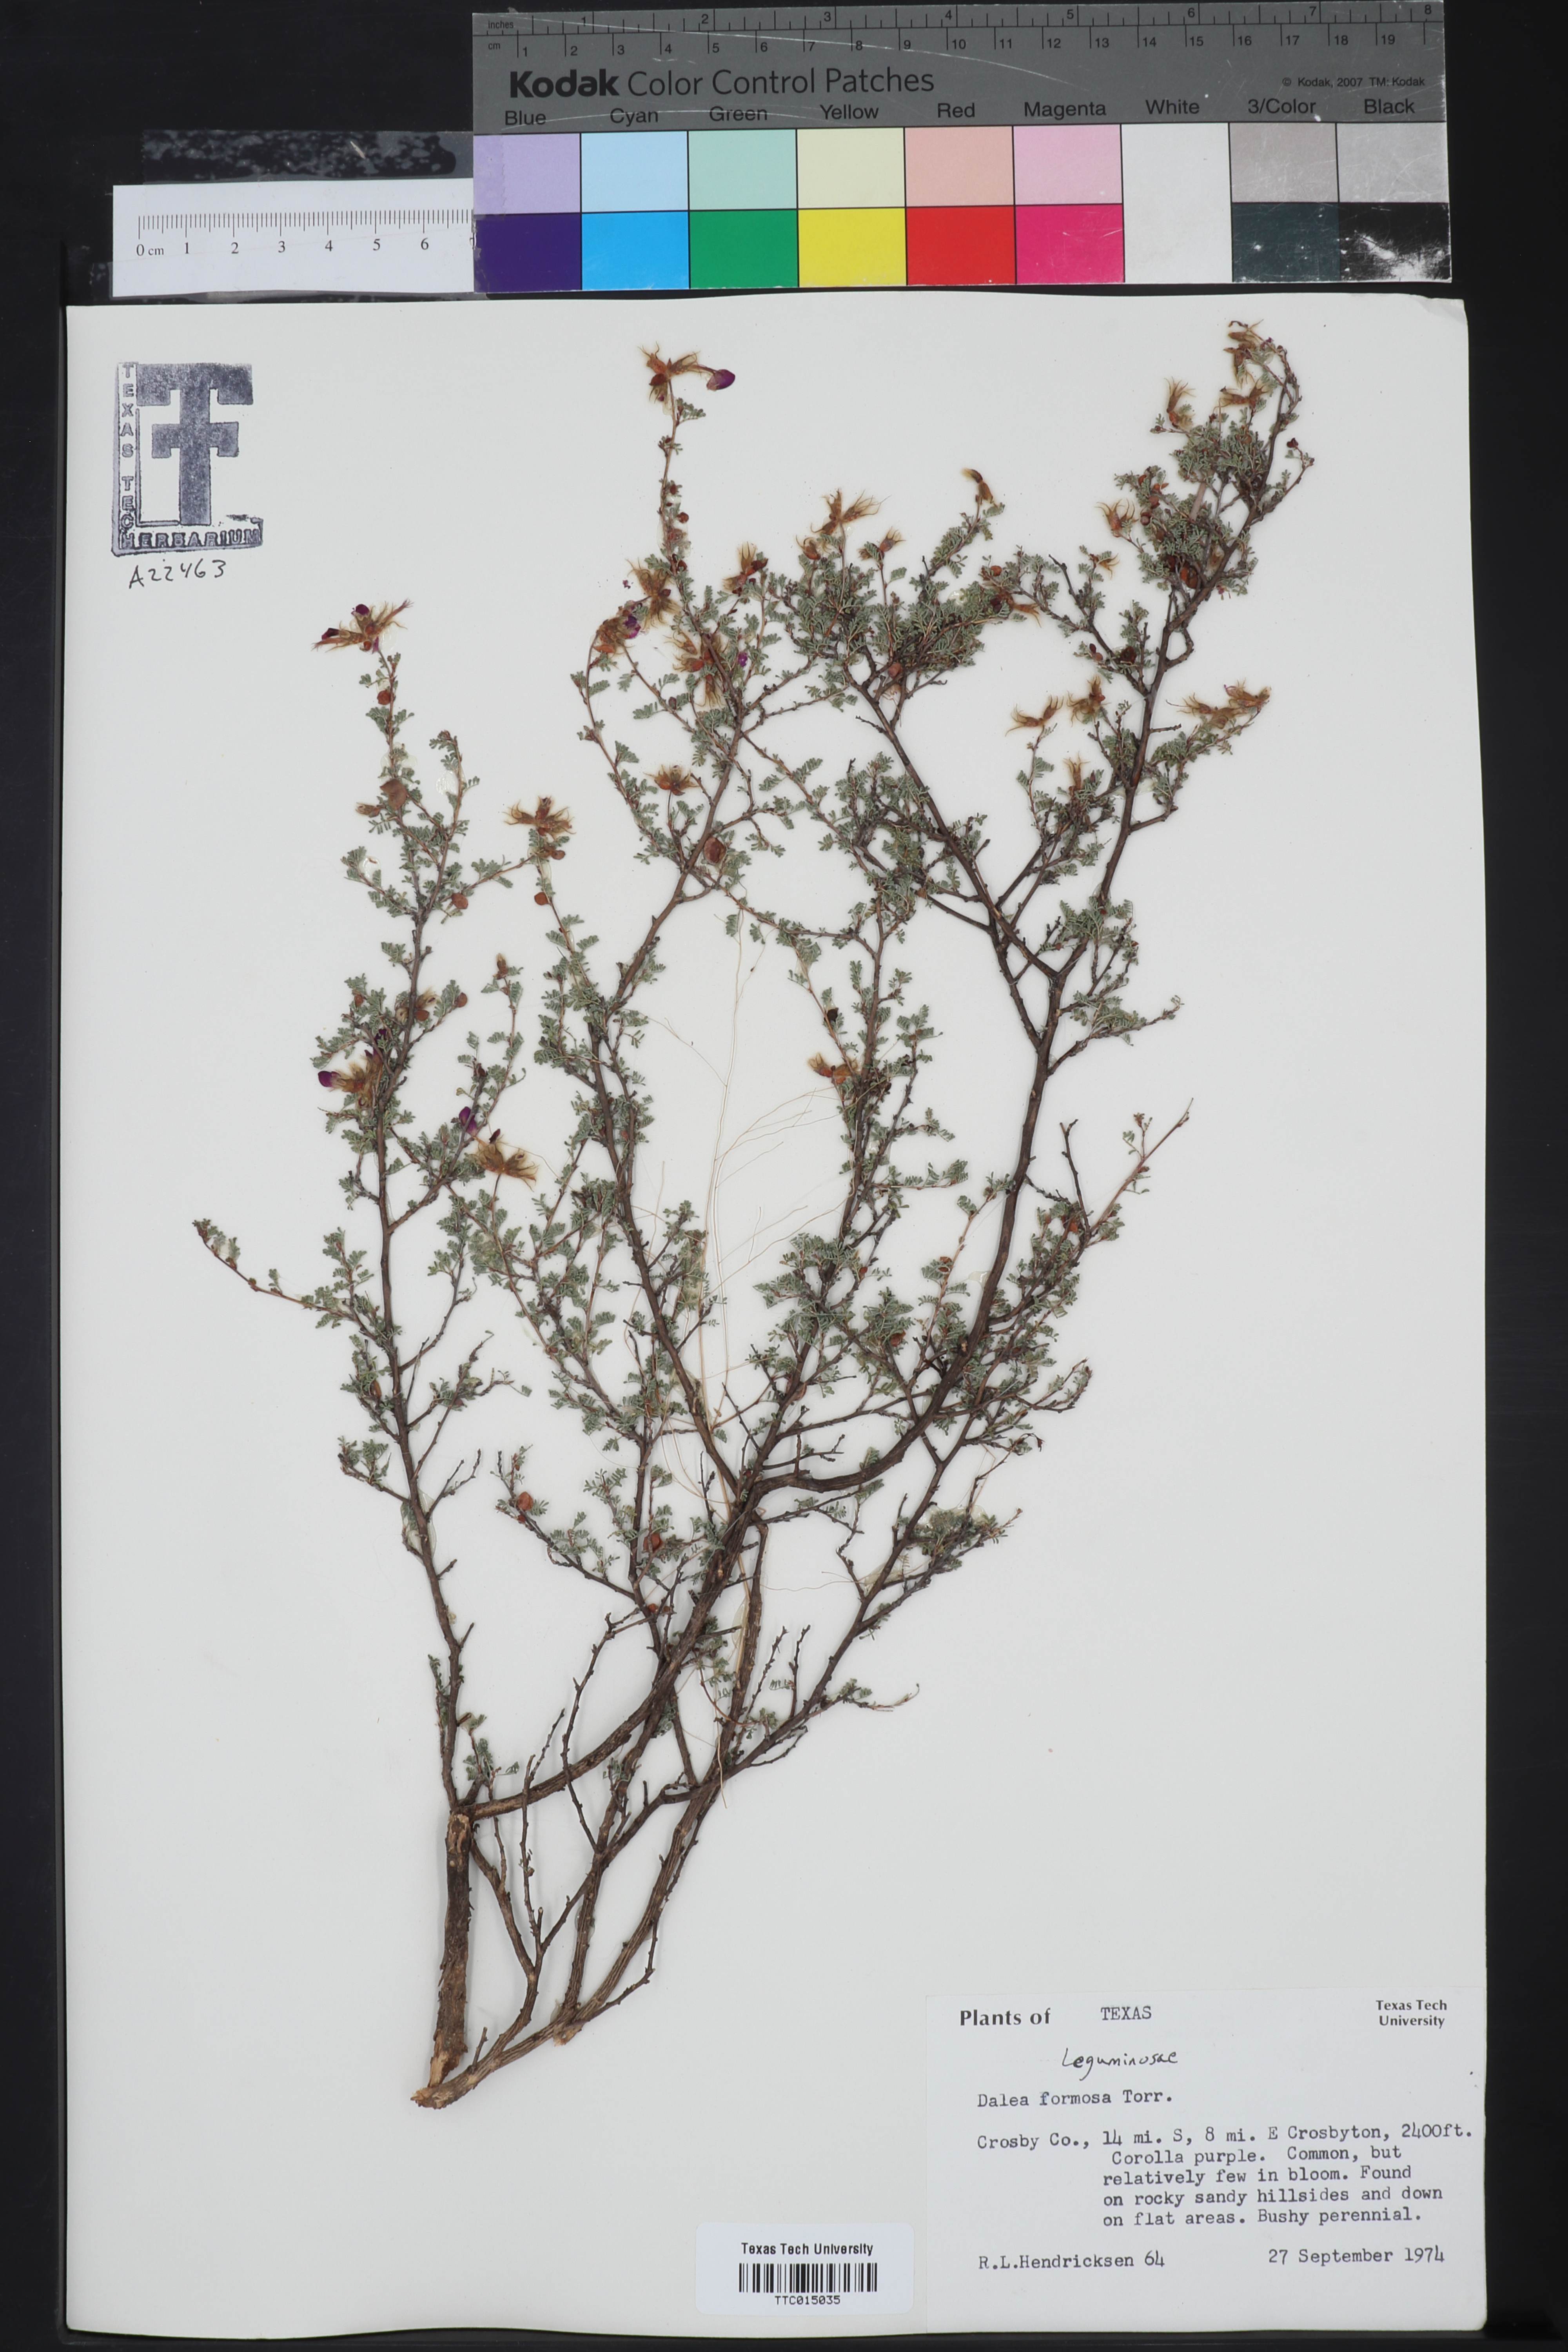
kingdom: Plantae
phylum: Tracheophyta
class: Magnoliopsida
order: Fabales
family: Fabaceae
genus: Dalea
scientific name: Dalea formosa
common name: Feather-plume dalea
